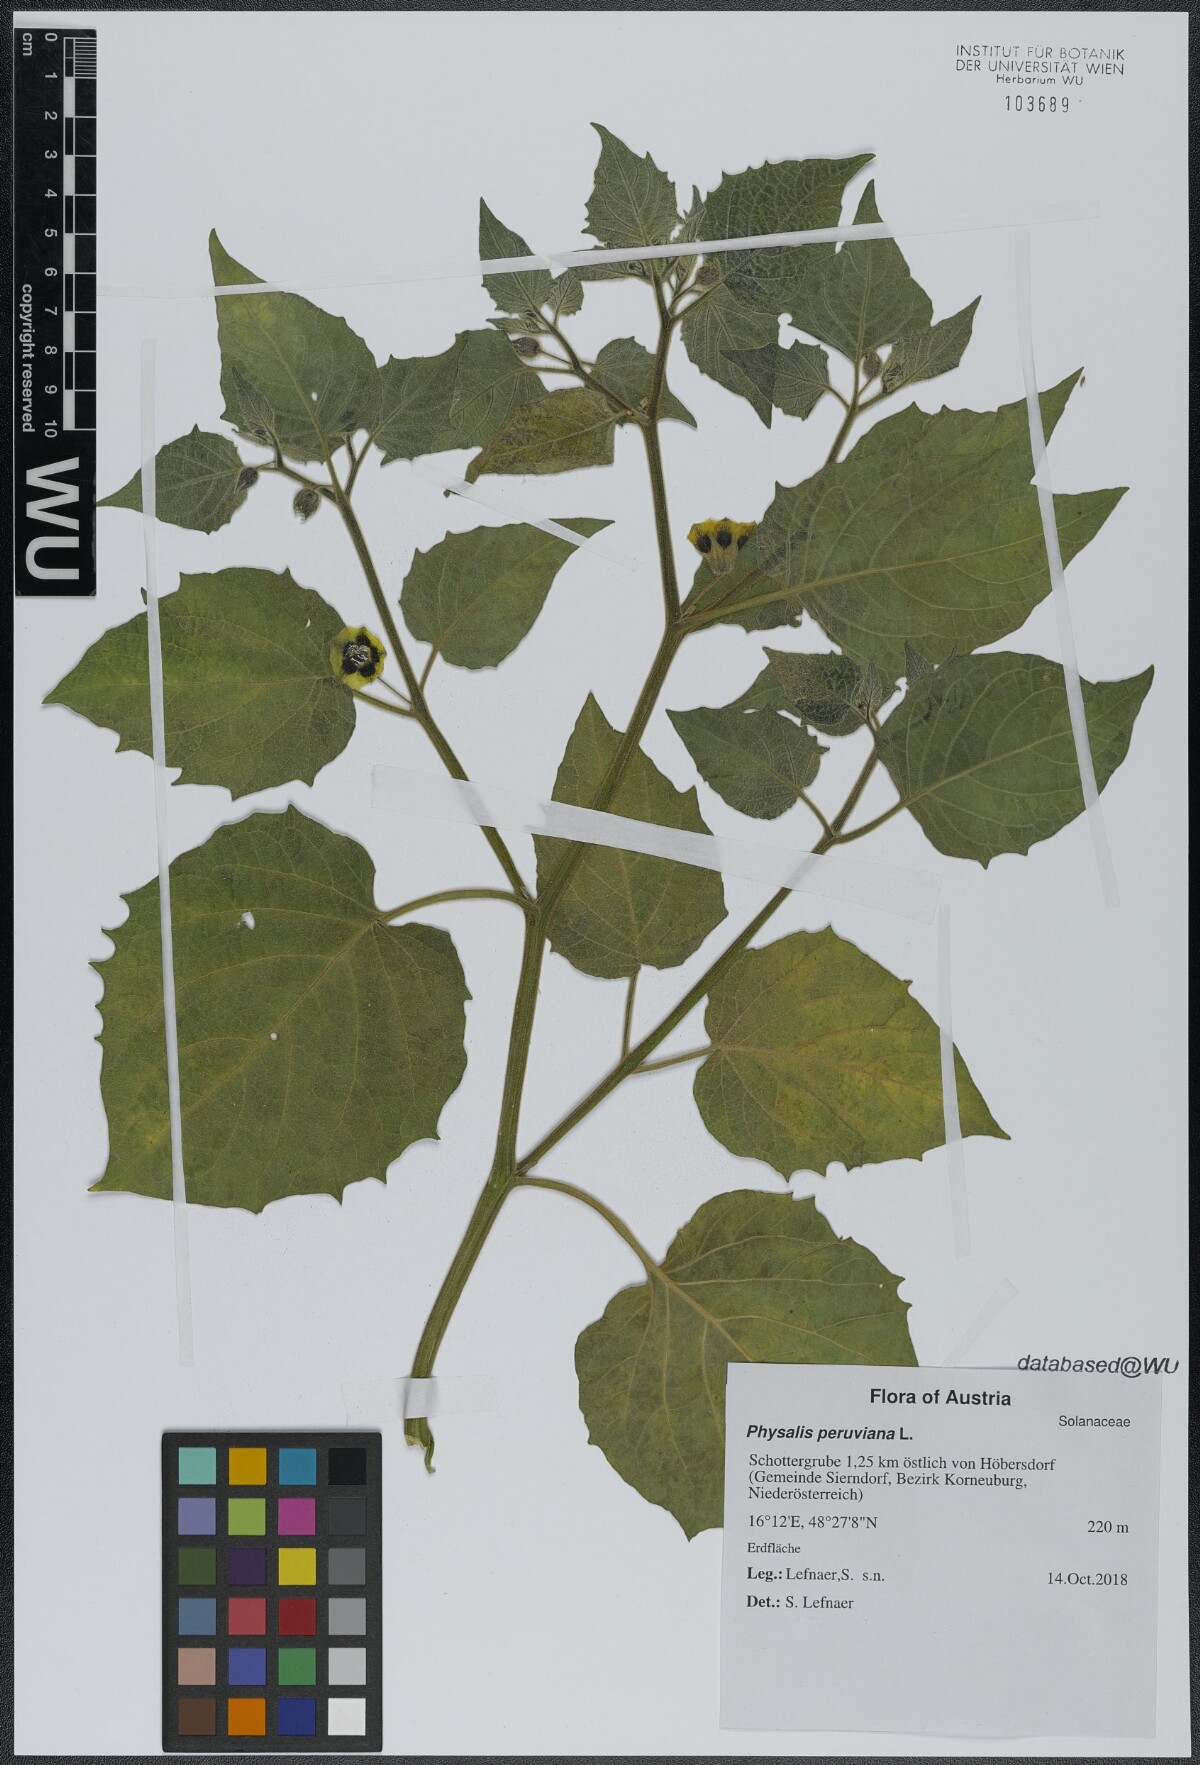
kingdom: Plantae
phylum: Tracheophyta
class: Magnoliopsida
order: Solanales
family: Solanaceae
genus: Physalis
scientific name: Physalis peruviana
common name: Cape-gooseberry
